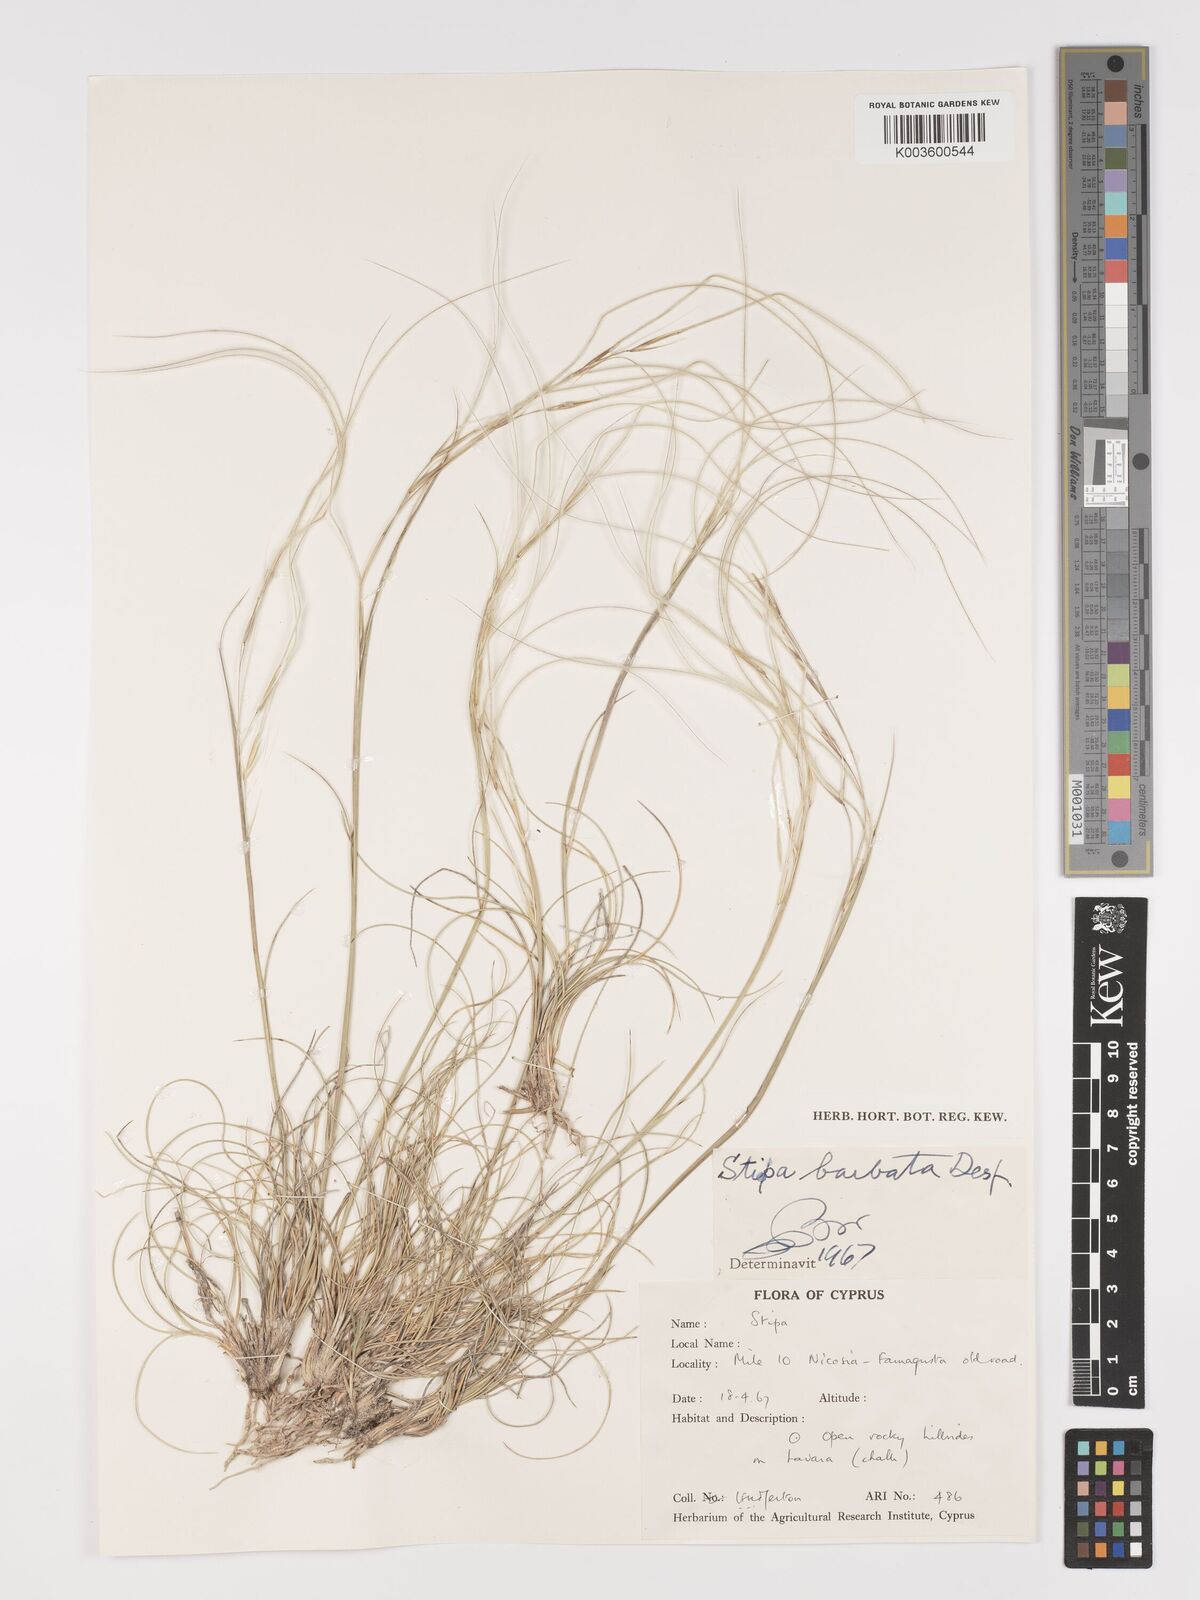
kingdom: Plantae
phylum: Tracheophyta
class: Liliopsida
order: Poales
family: Poaceae
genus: Stipa
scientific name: Stipa barbata
